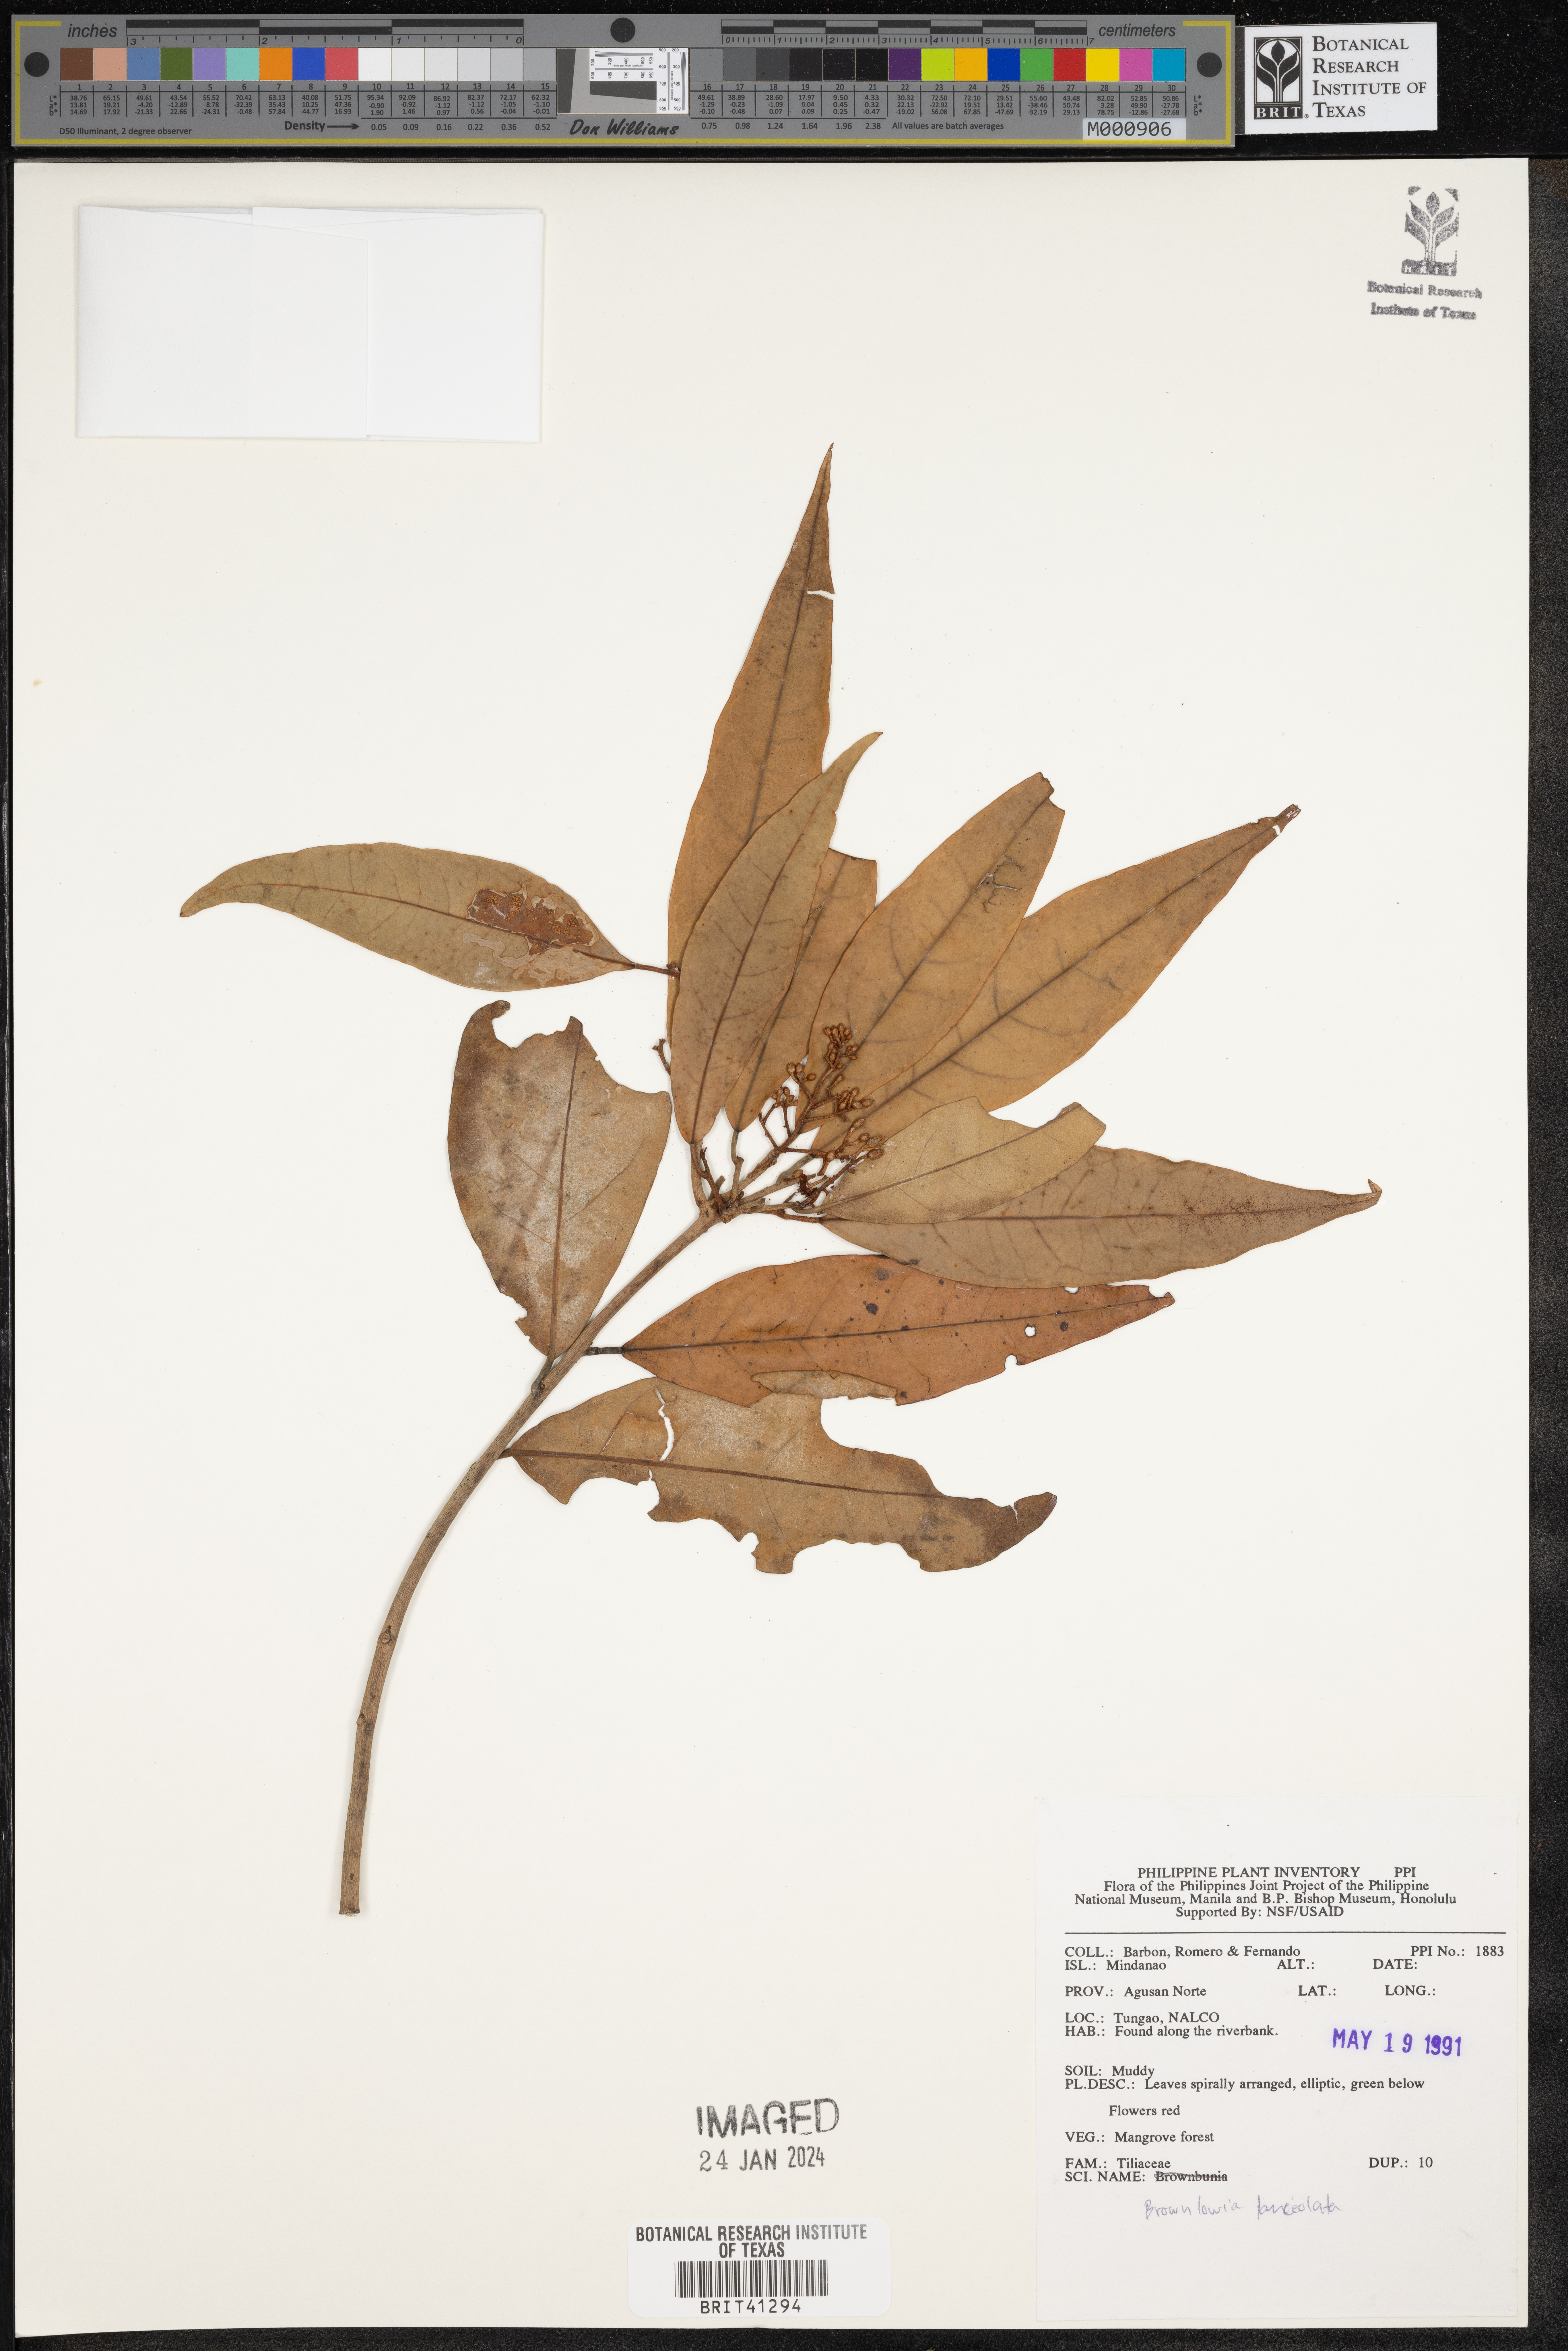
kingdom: Plantae
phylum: Tracheophyta
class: Magnoliopsida
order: Malvales
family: Malvaceae
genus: Brownlowia
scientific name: Brownlowia tersa
